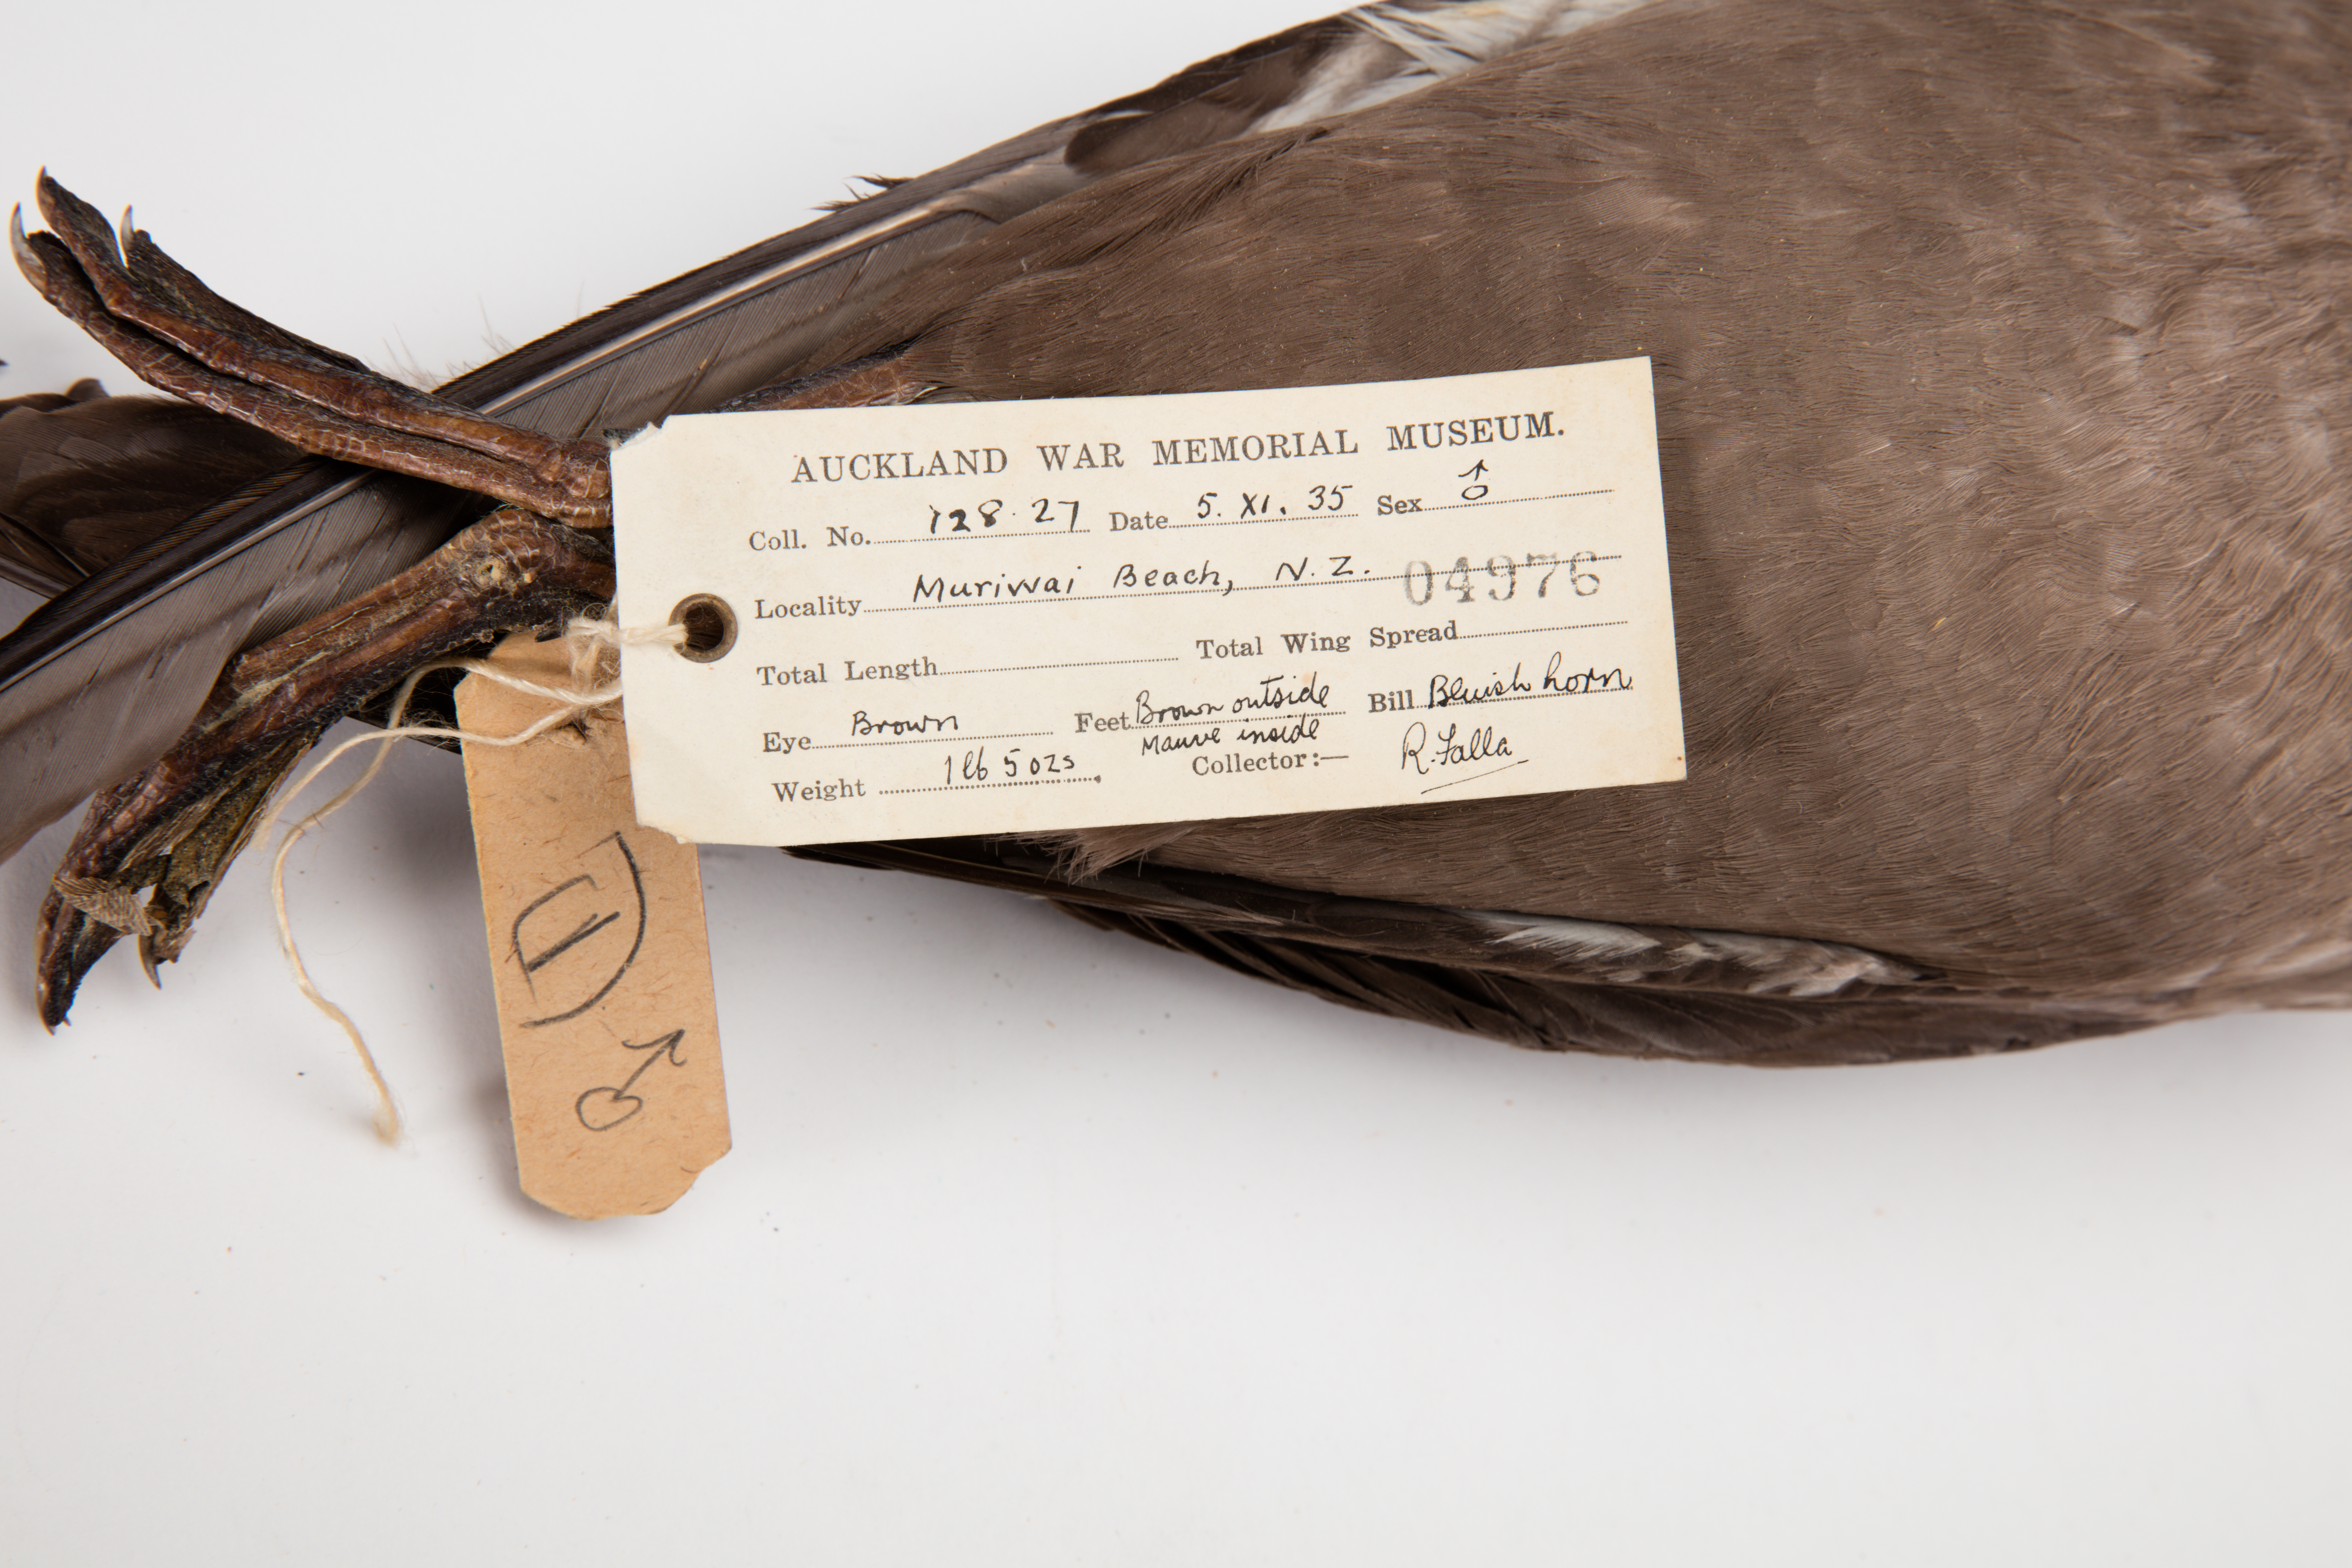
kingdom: Animalia
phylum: Chordata
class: Aves
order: Procellariiformes
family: Procellariidae
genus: Puffinus
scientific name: Puffinus griseus
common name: Sooty shearwater
